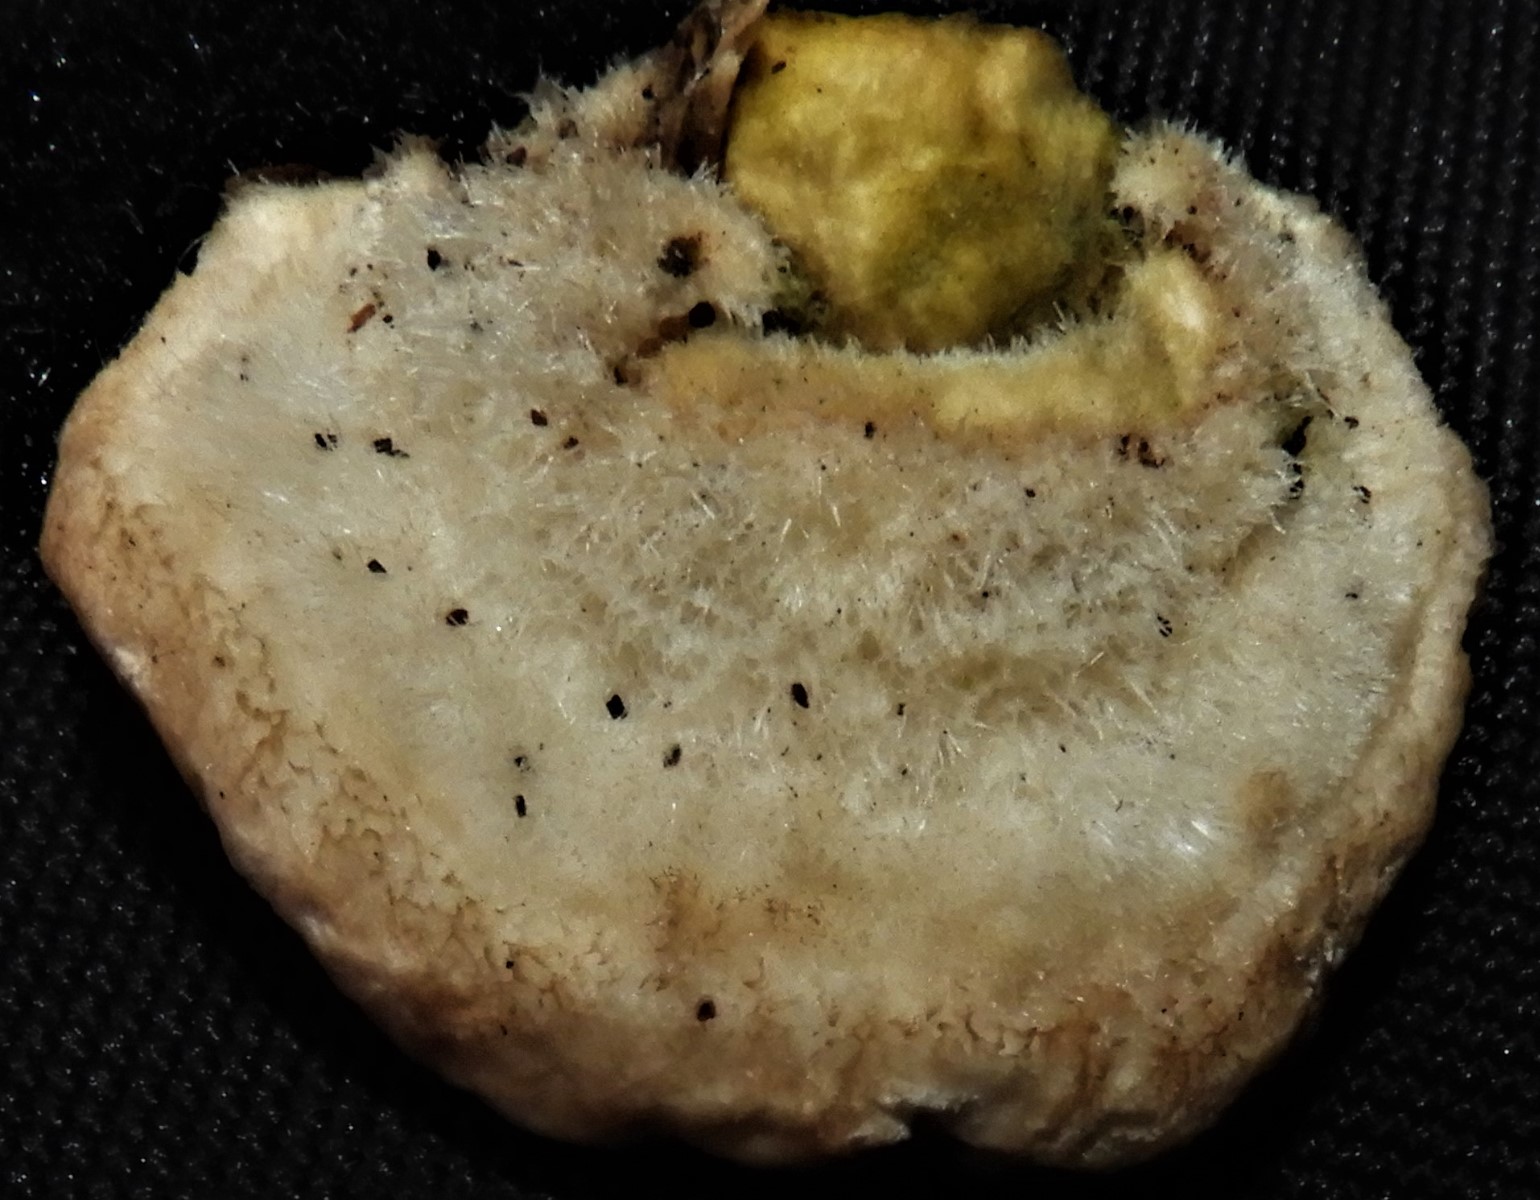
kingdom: Fungi
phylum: Basidiomycota
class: Agaricomycetes
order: Polyporales
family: Polyporaceae
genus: Trametes
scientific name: Trametes hirsuta
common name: håret læderporesvamp
